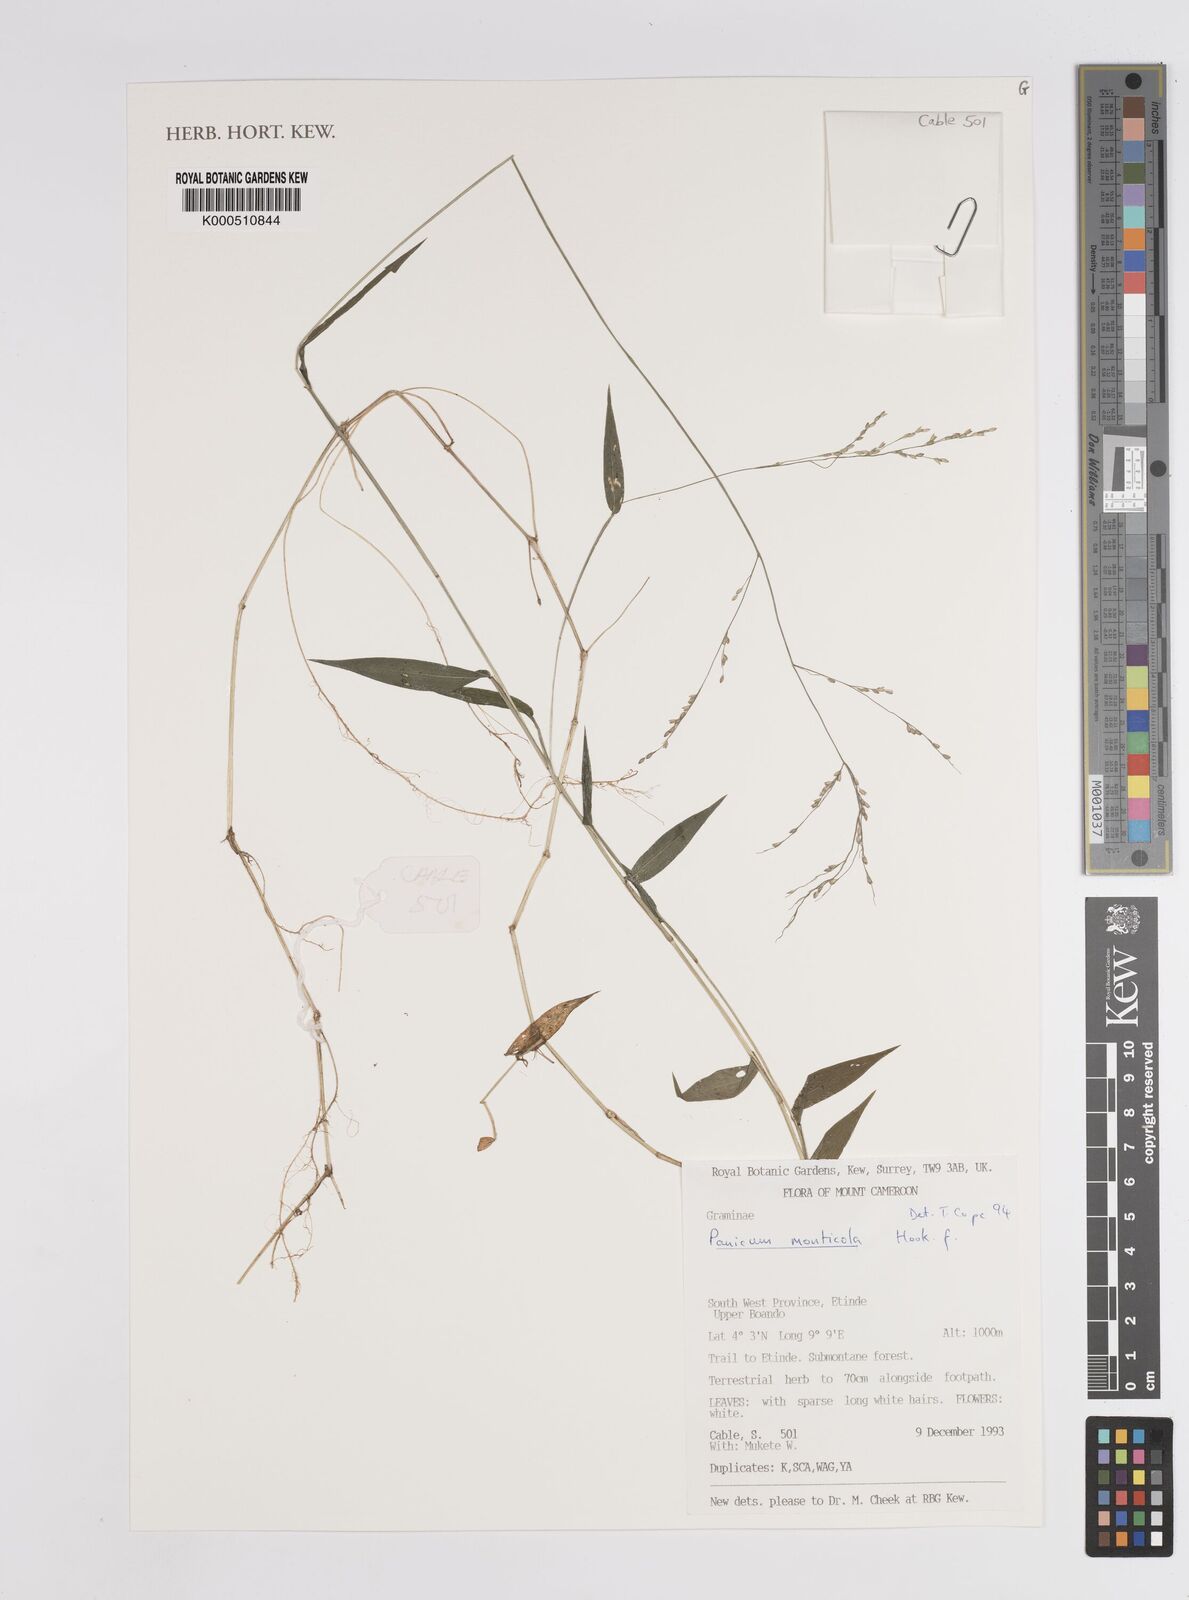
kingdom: Plantae
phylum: Tracheophyta
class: Liliopsida
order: Poales
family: Poaceae
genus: Panicum
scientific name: Panicum monticola
